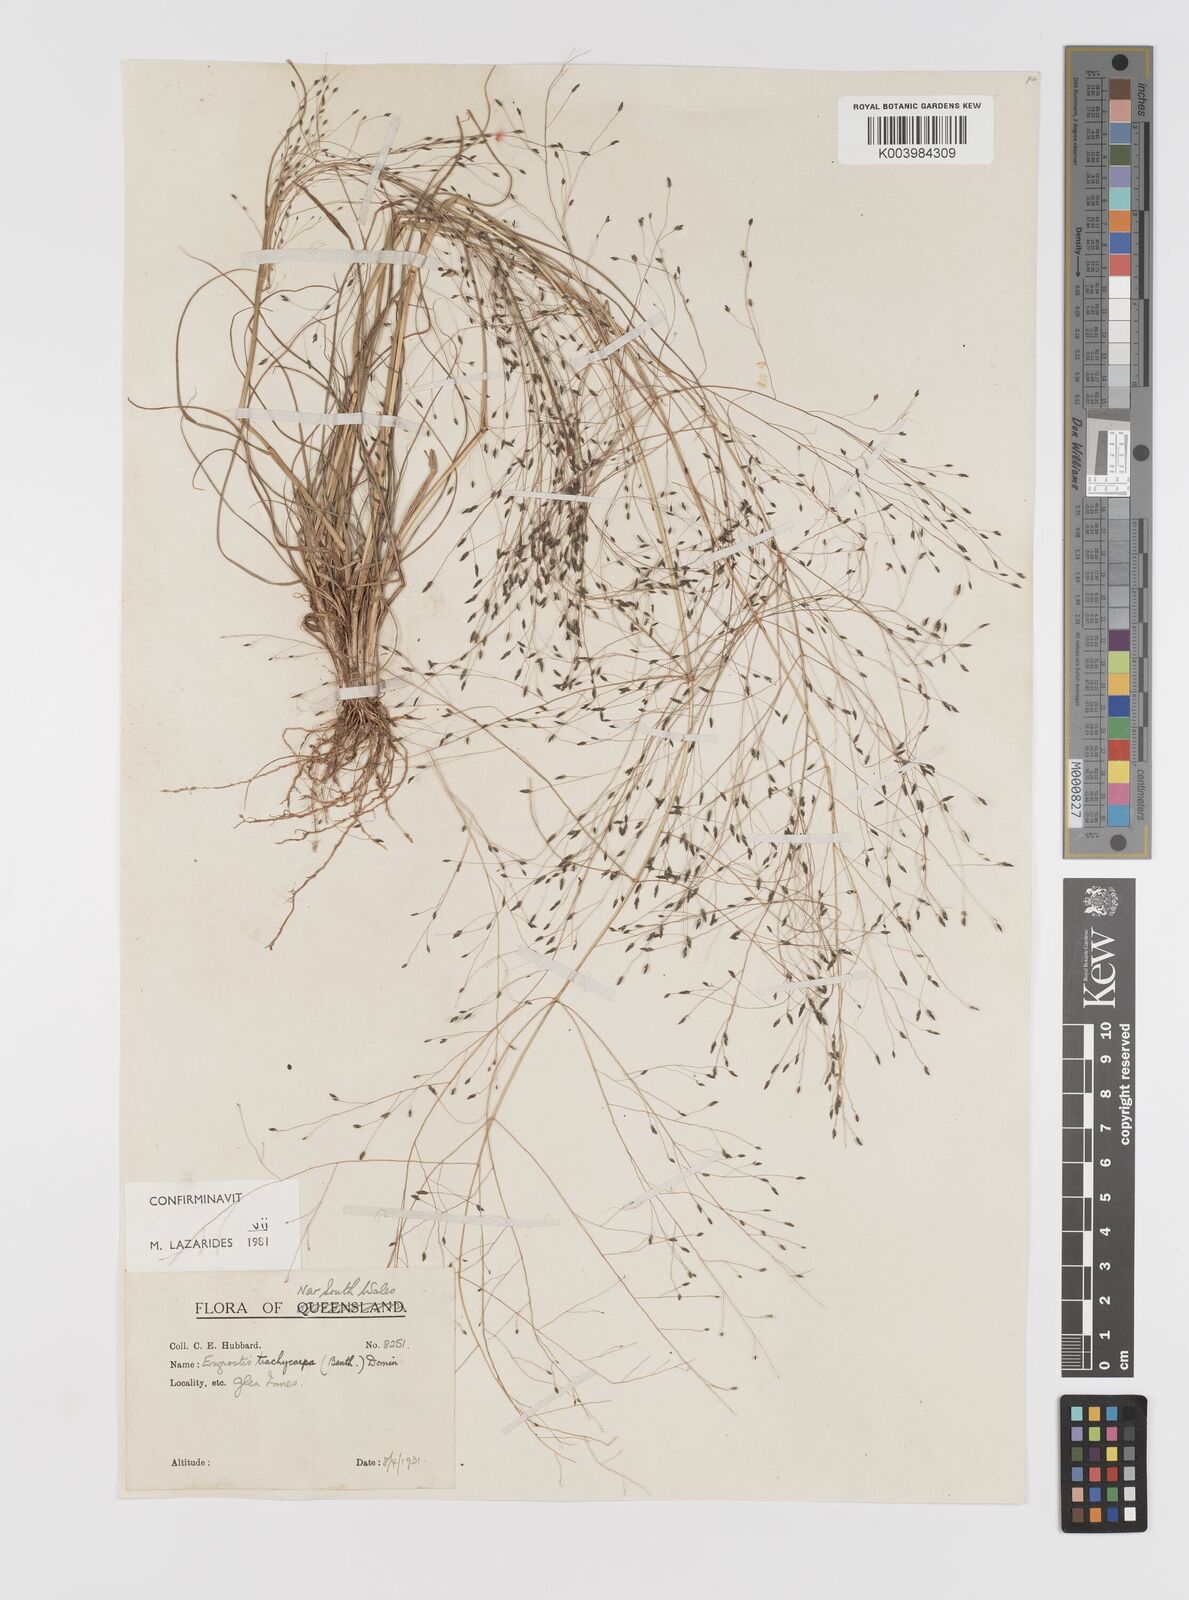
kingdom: Plantae
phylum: Tracheophyta
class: Liliopsida
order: Poales
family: Poaceae
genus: Eragrostis
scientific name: Eragrostis trachycarpa
